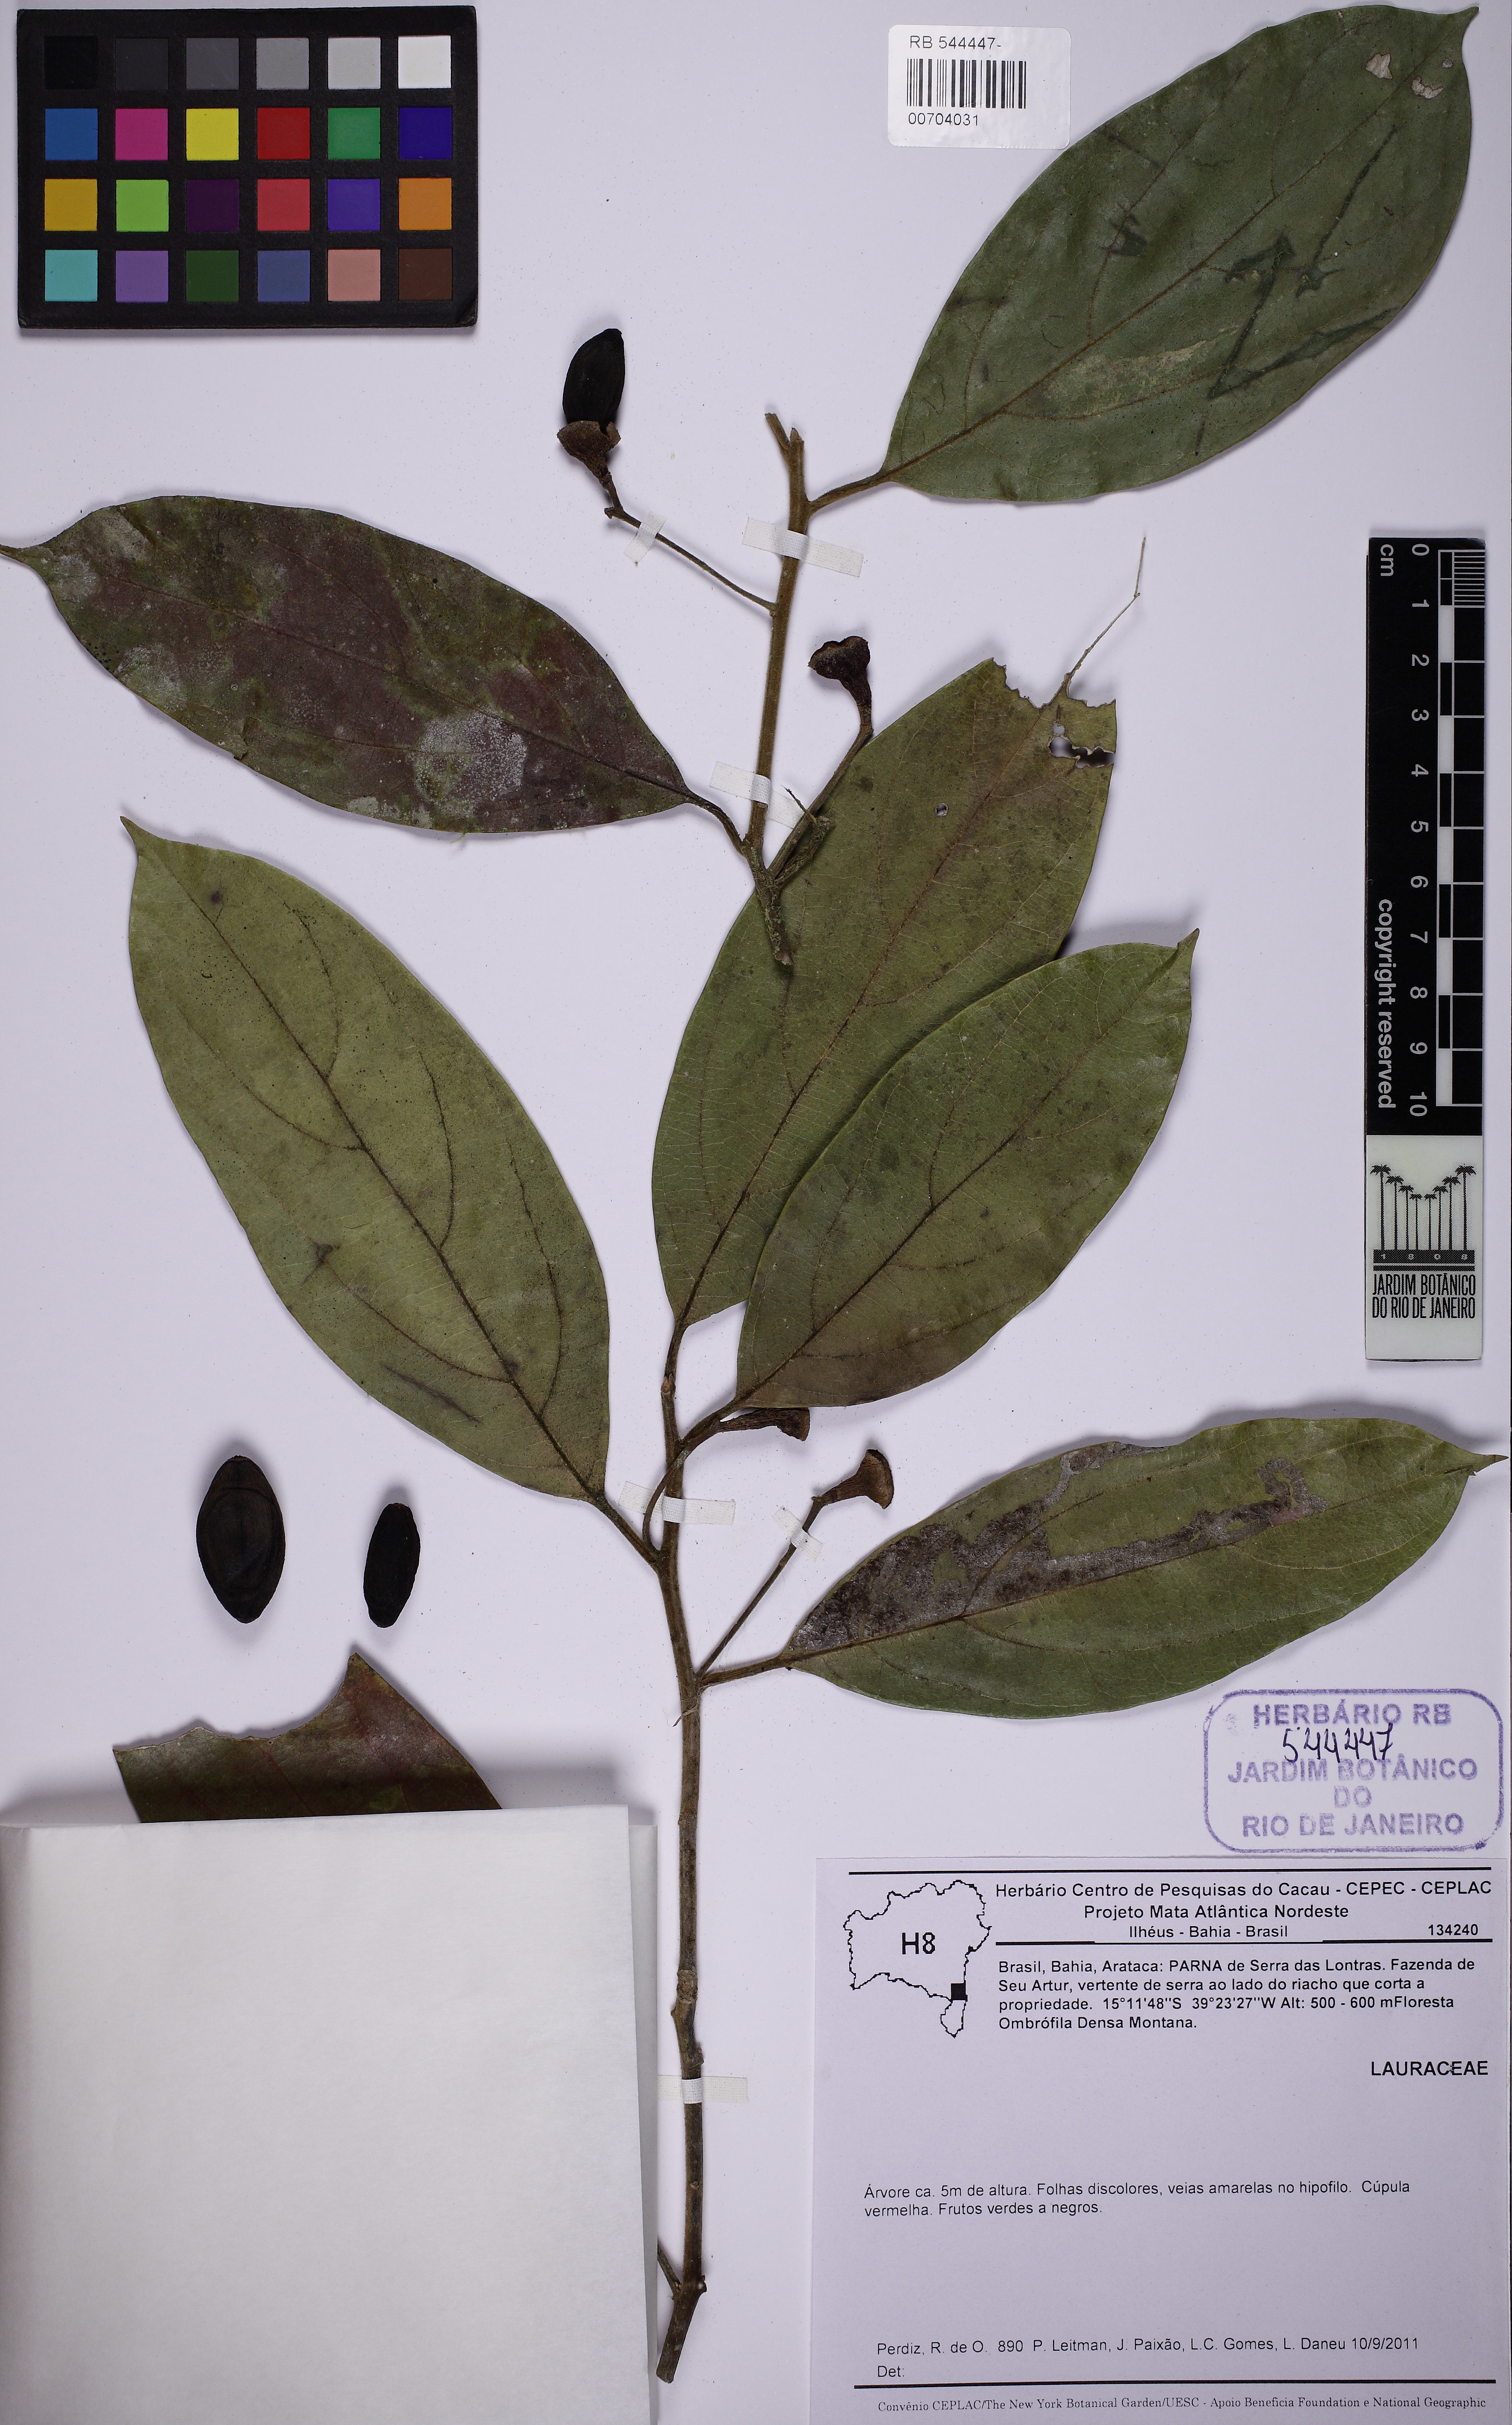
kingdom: Plantae
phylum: Tracheophyta
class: Magnoliopsida
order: Laurales
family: Lauraceae
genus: Endlicheria
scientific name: Endlicheria paniculata
